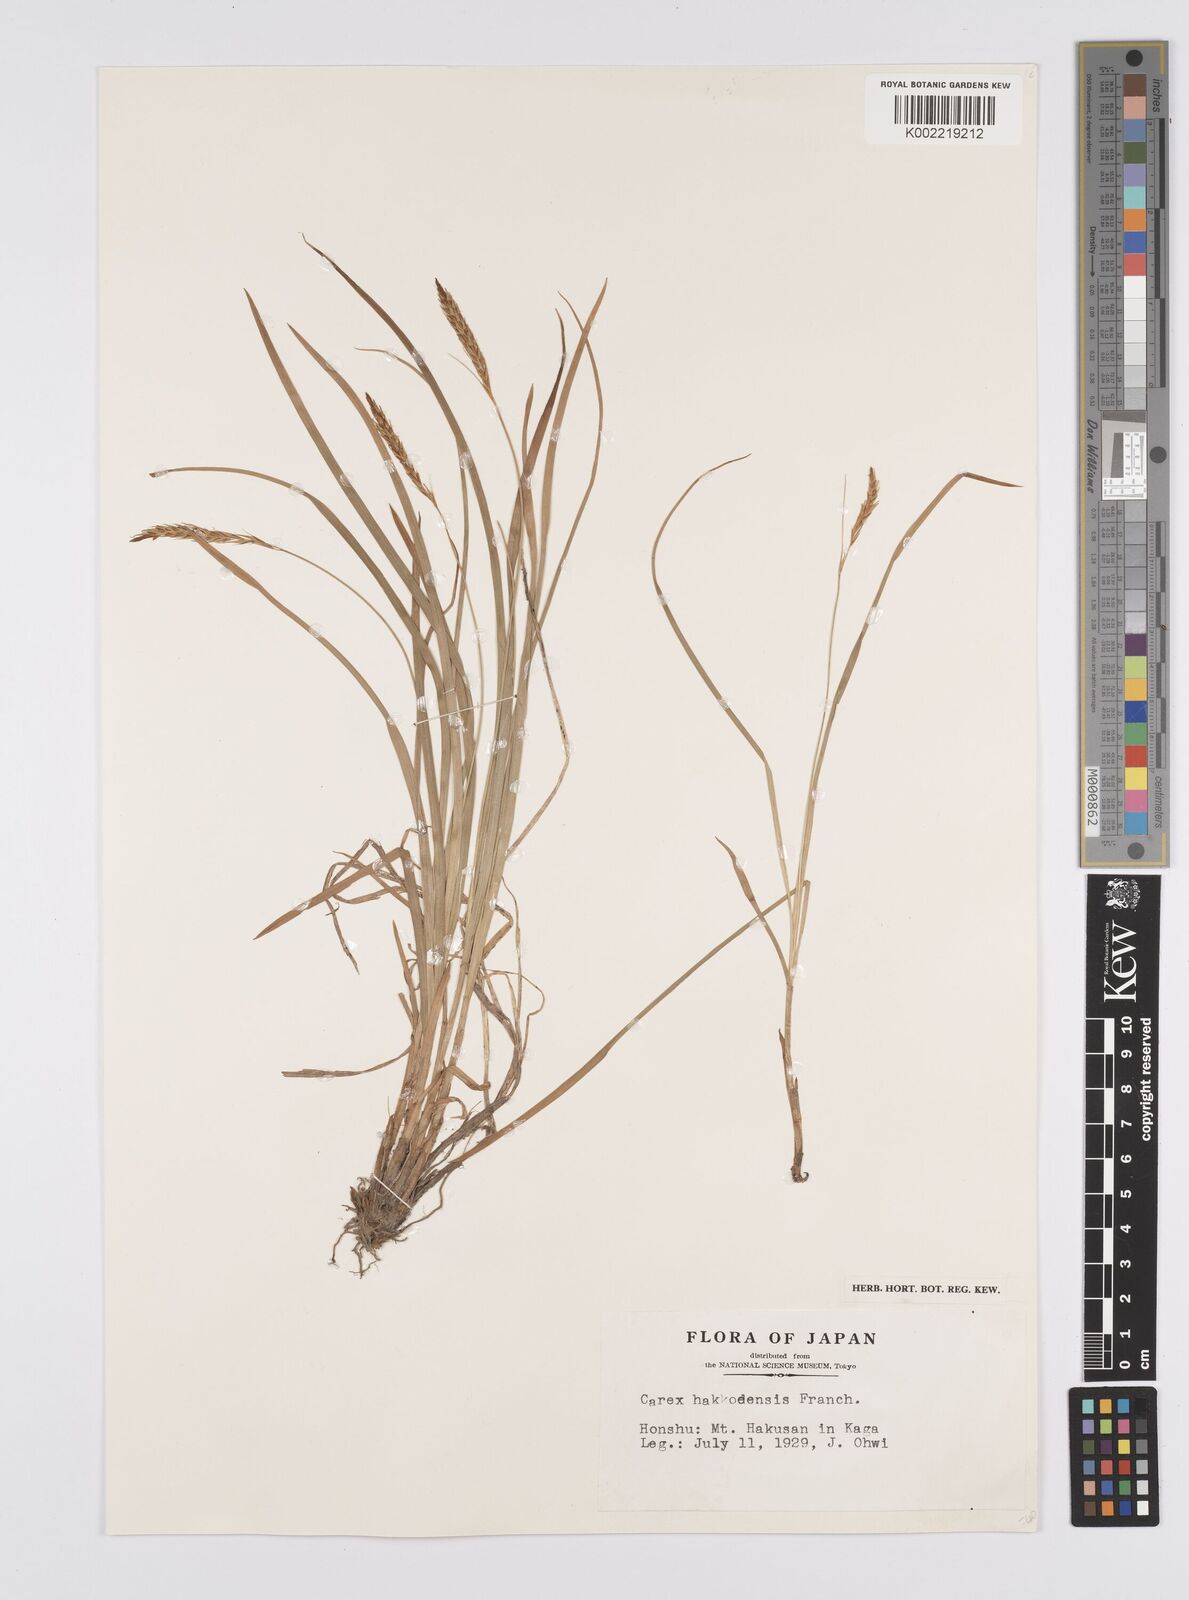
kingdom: Plantae
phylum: Tracheophyta
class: Liliopsida
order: Poales
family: Cyperaceae
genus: Carex
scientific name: Carex hakkodensis
